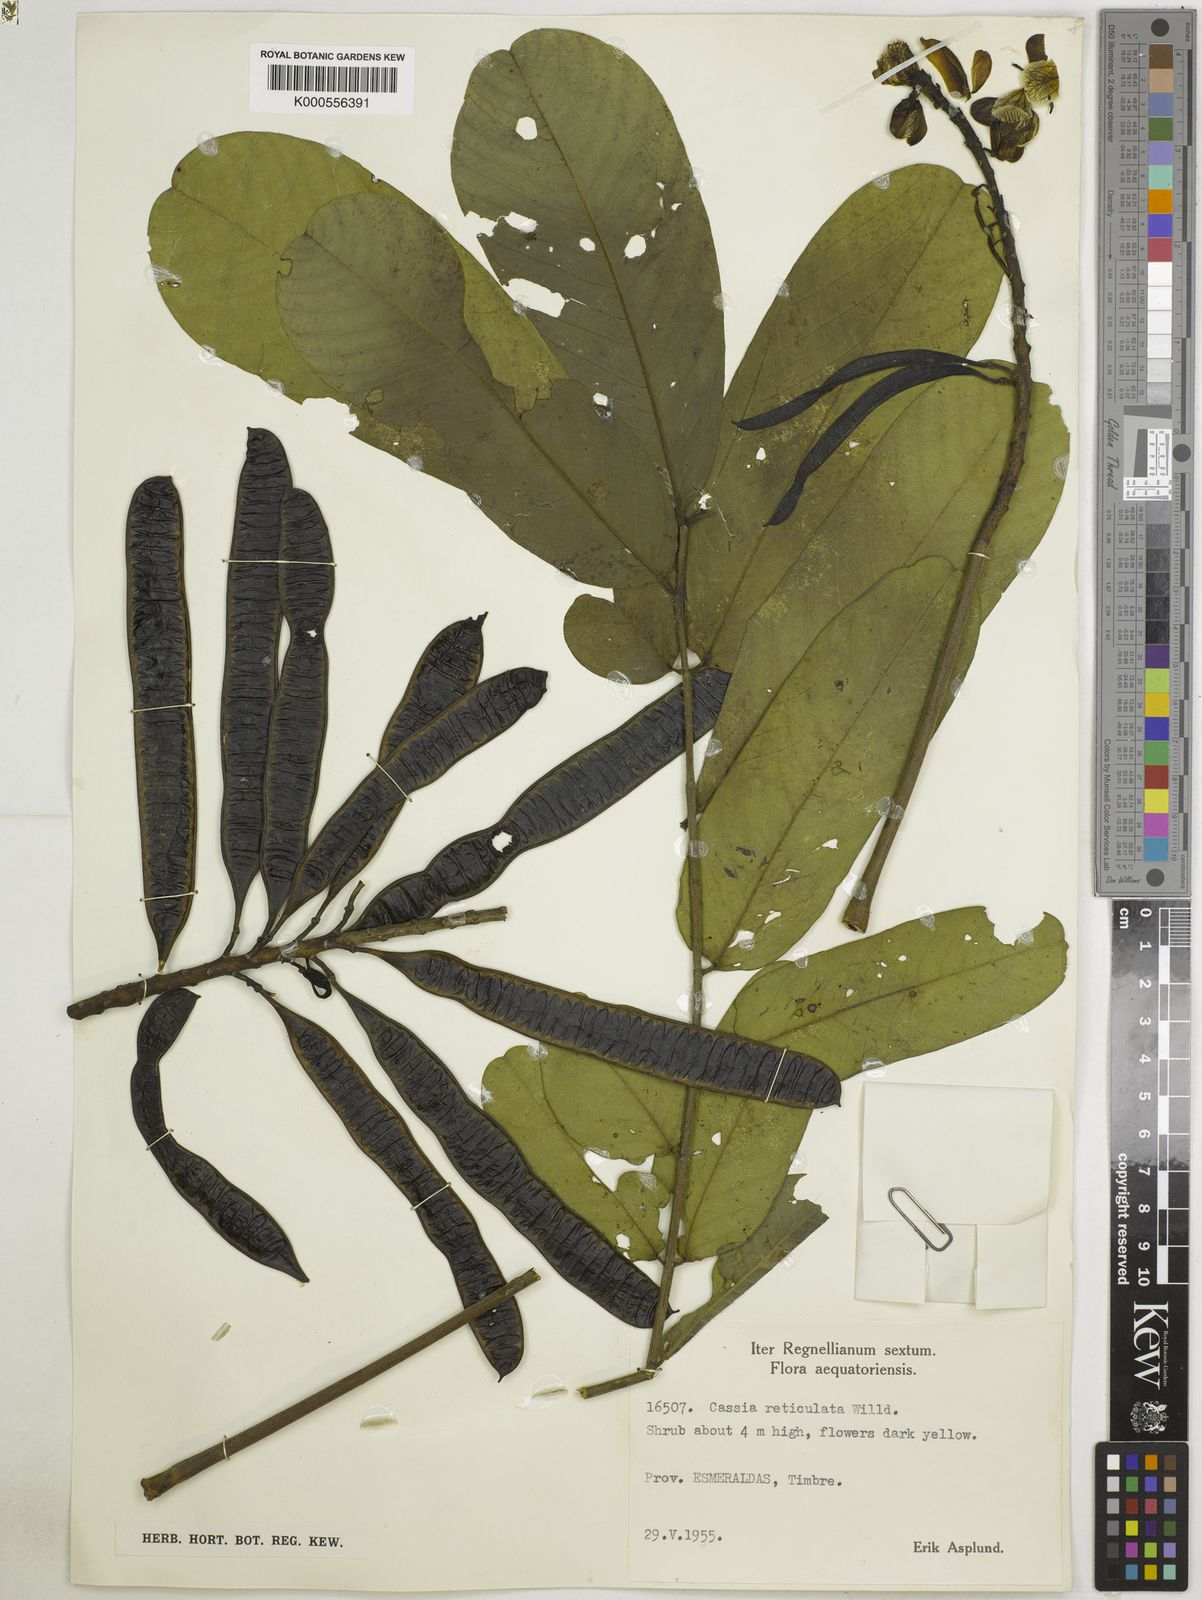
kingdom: Plantae
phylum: Tracheophyta
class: Magnoliopsida
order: Fabales
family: Fabaceae
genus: Senna
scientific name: Senna reticulata
